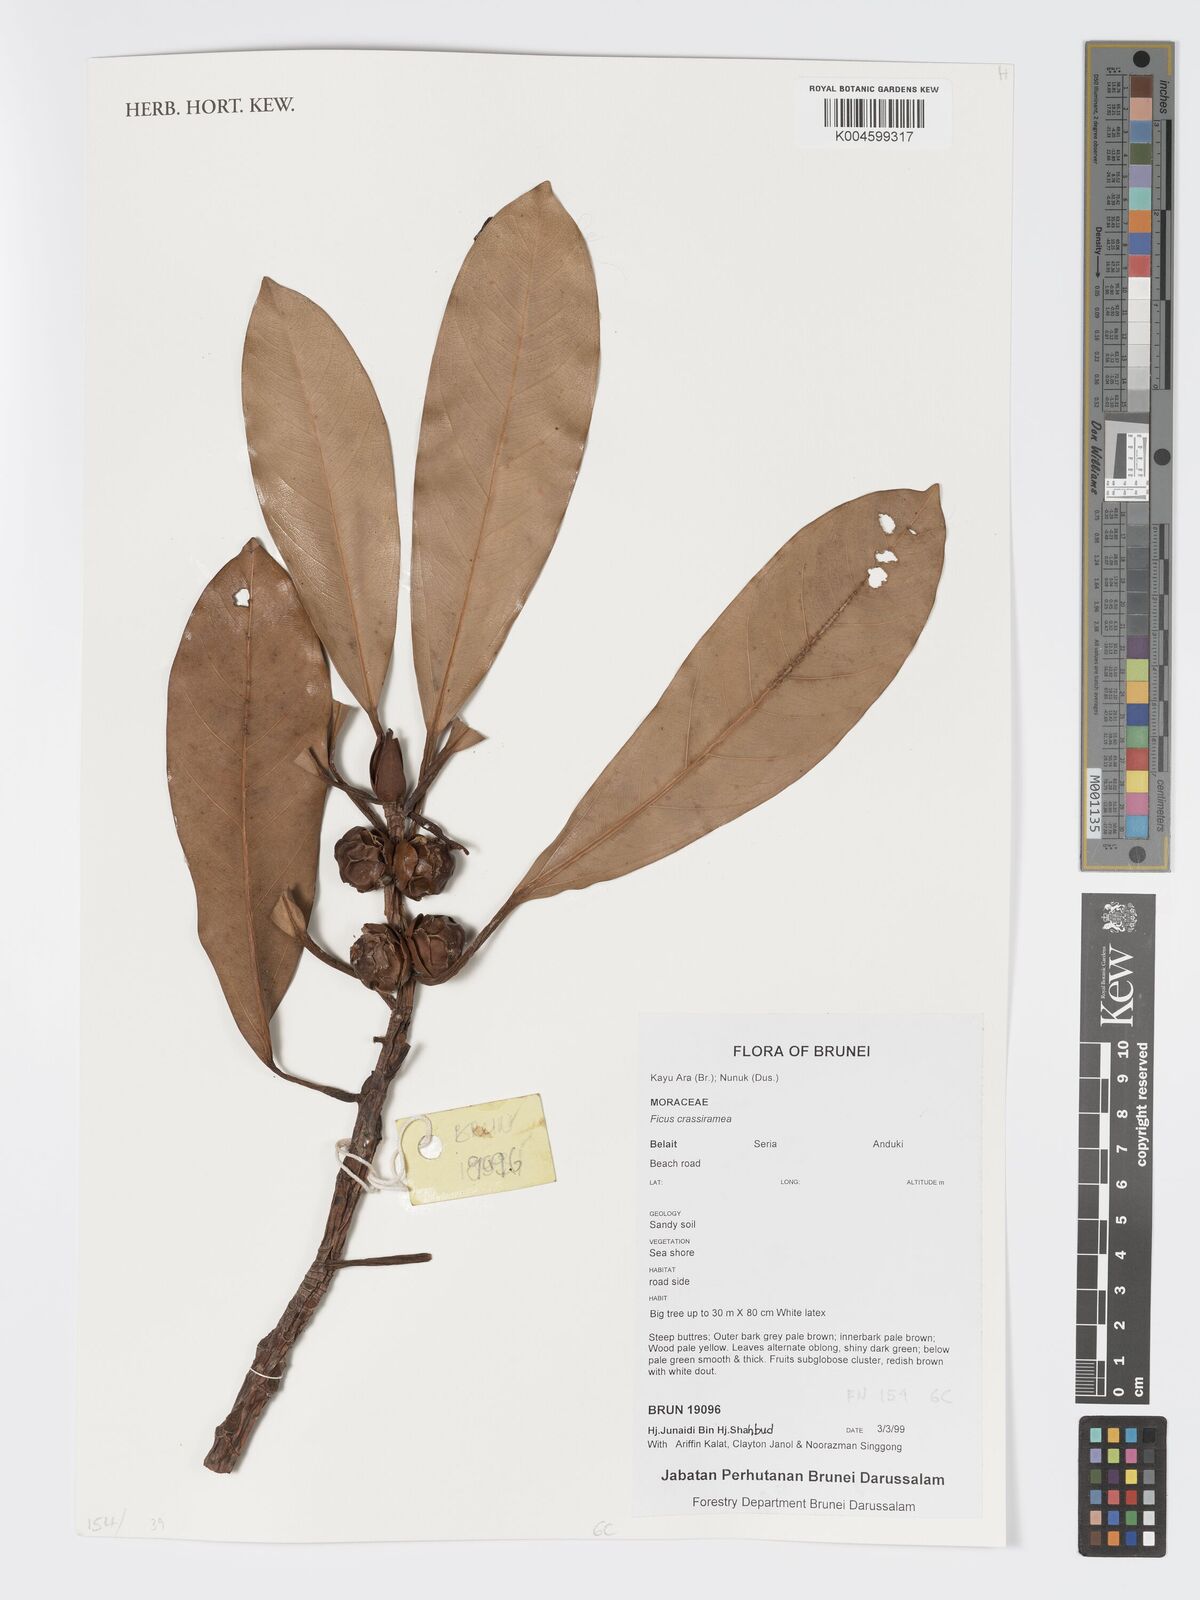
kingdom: Plantae
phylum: Tracheophyta
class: Magnoliopsida
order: Rosales
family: Moraceae
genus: Ficus
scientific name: Ficus crassiramea
